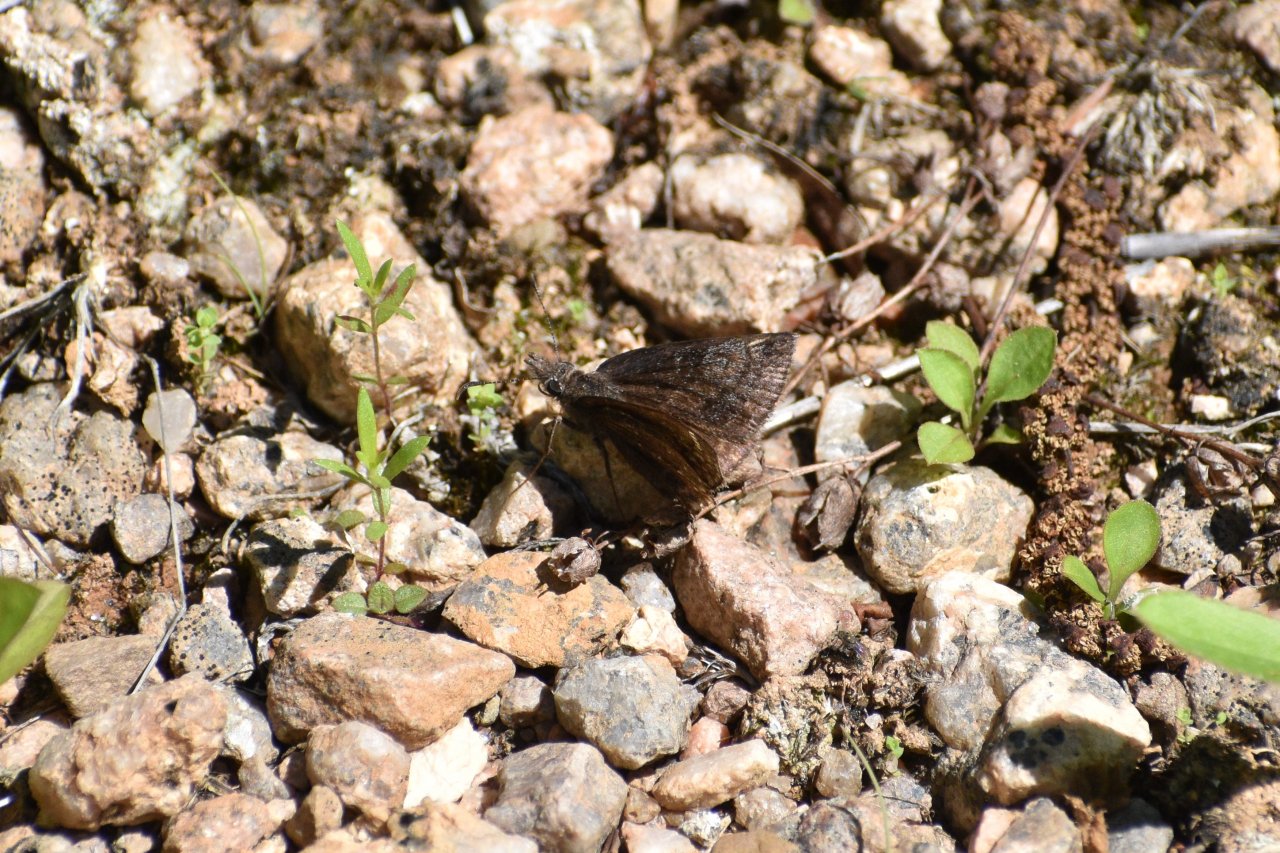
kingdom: Animalia
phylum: Arthropoda
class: Insecta
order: Lepidoptera
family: Hesperiidae
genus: Erynnis
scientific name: Erynnis icelus
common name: Dreamy Duskywing
